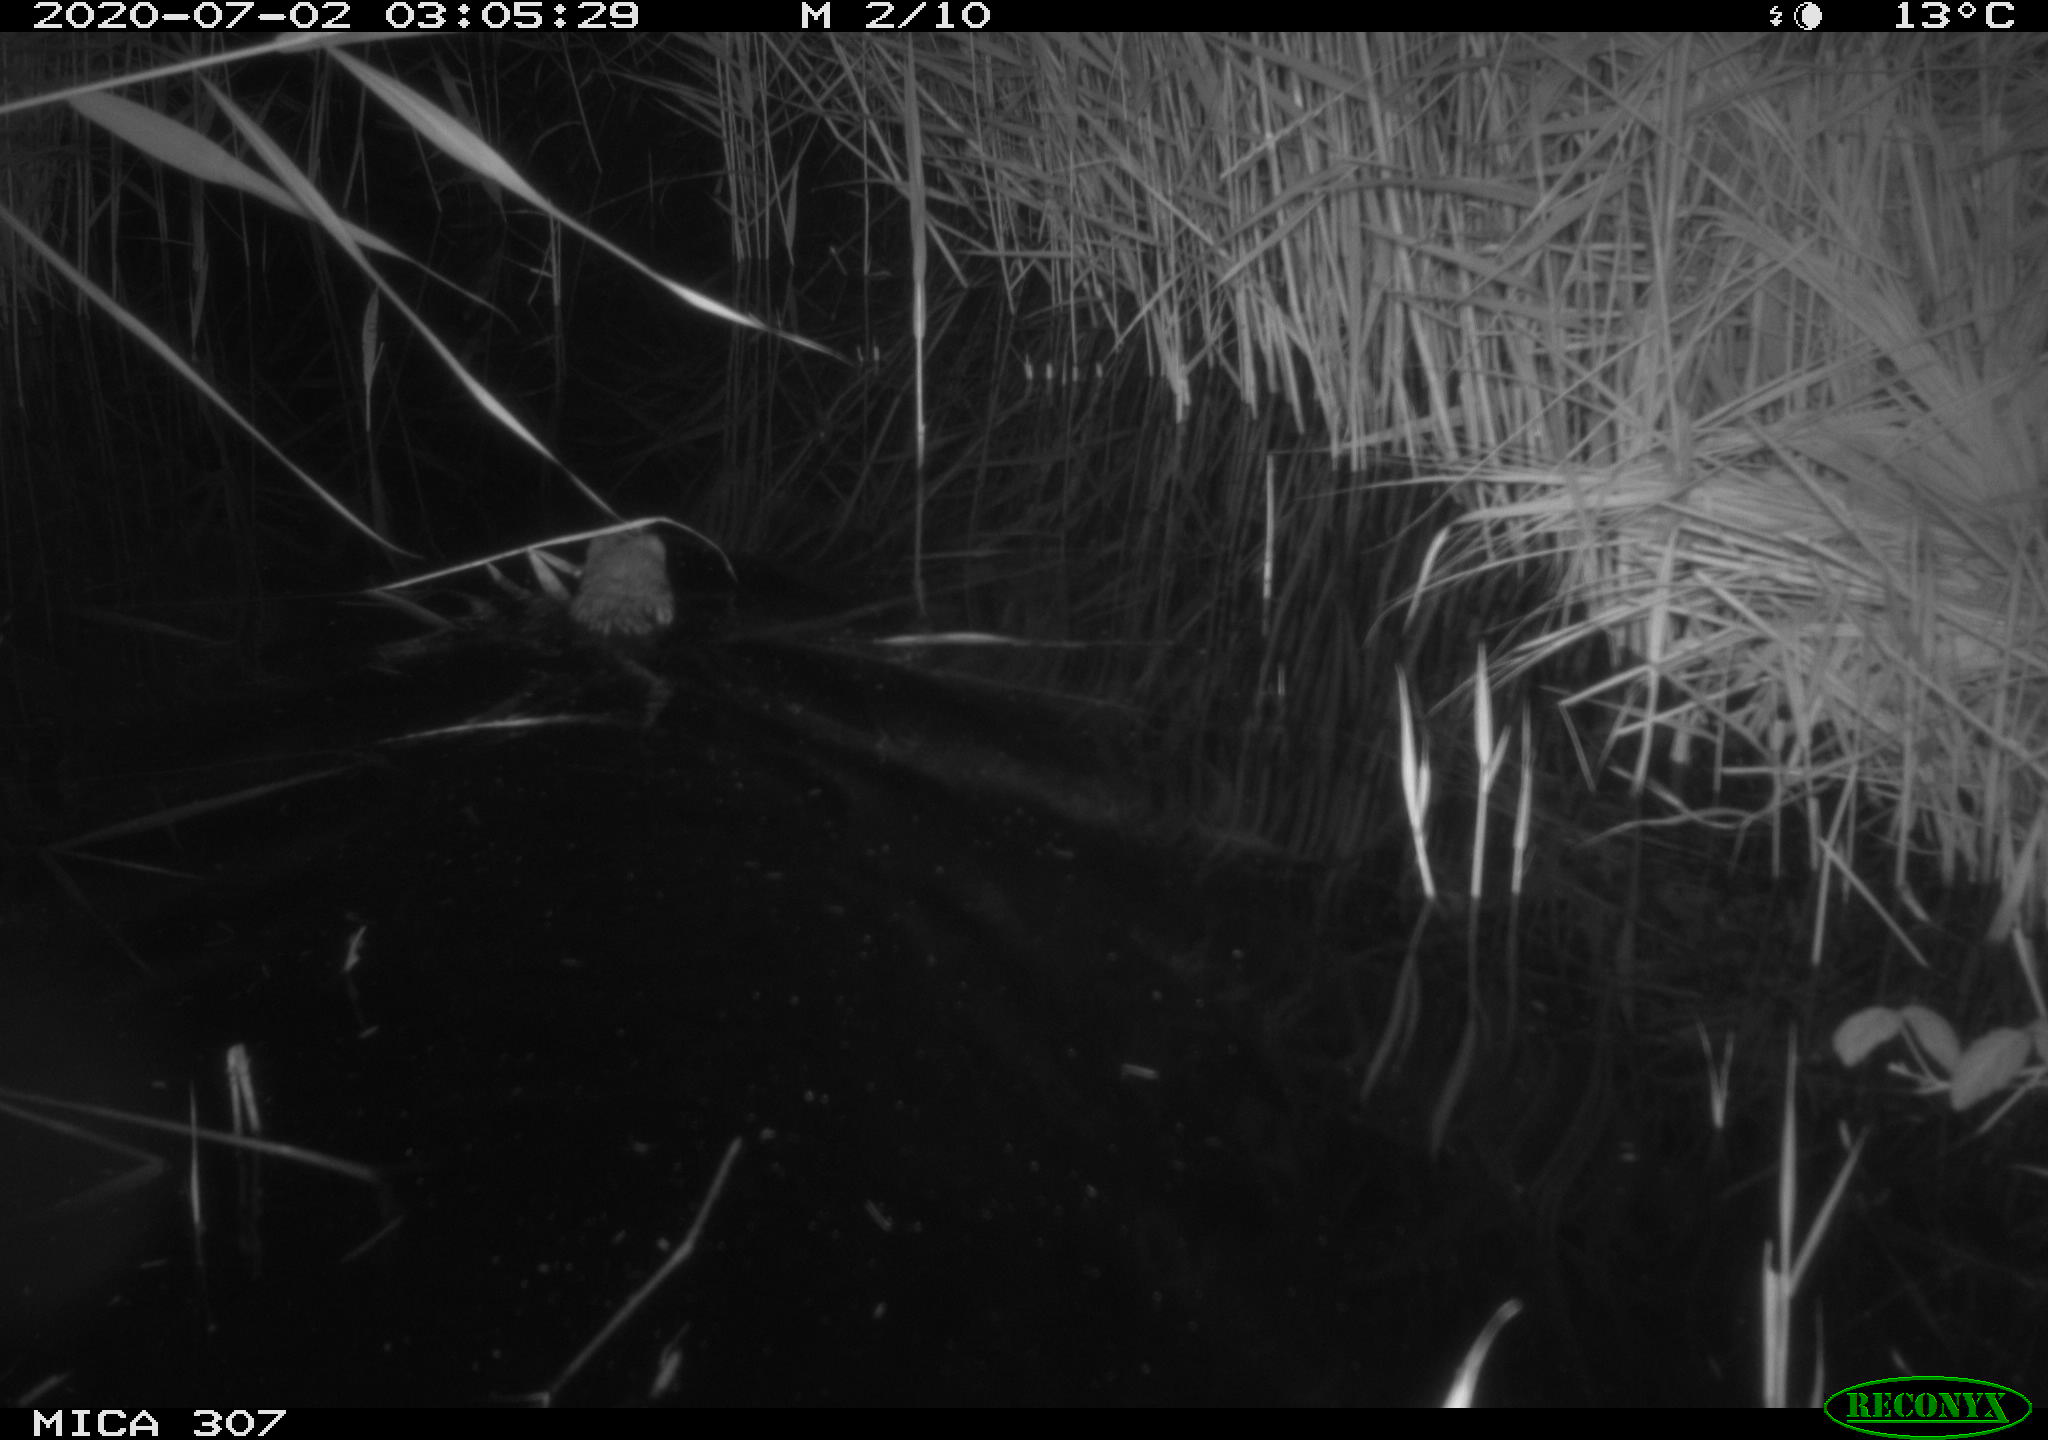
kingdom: Animalia
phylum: Chordata
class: Mammalia
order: Rodentia
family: Cricetidae
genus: Ondatra
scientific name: Ondatra zibethicus
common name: Muskrat
